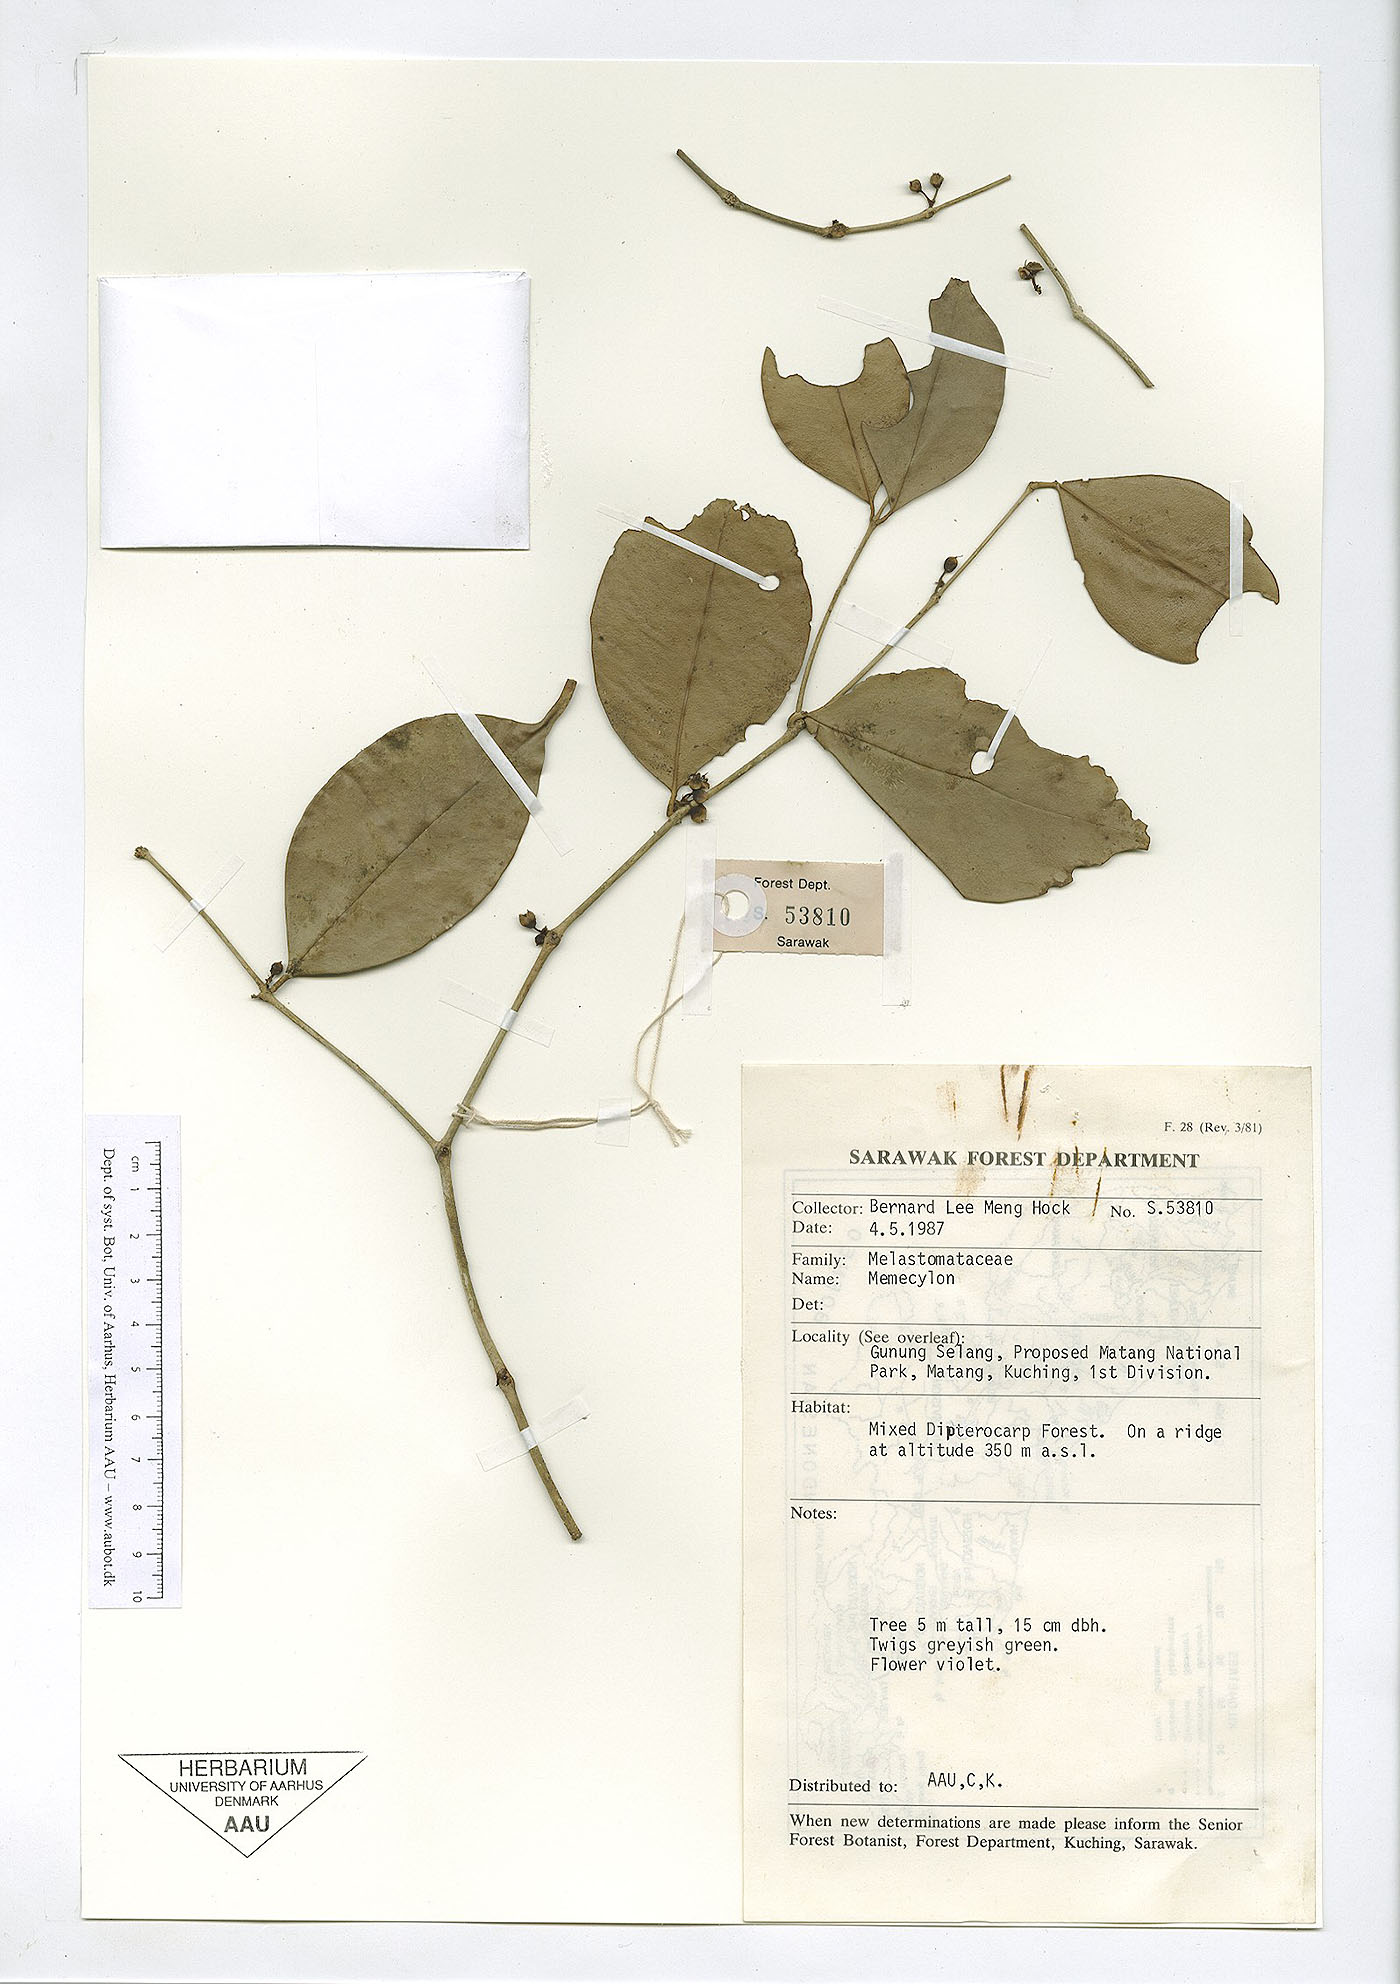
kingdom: Plantae
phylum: Tracheophyta
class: Magnoliopsida
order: Myrtales
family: Melastomataceae
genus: Memecylon
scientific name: Memecylon
